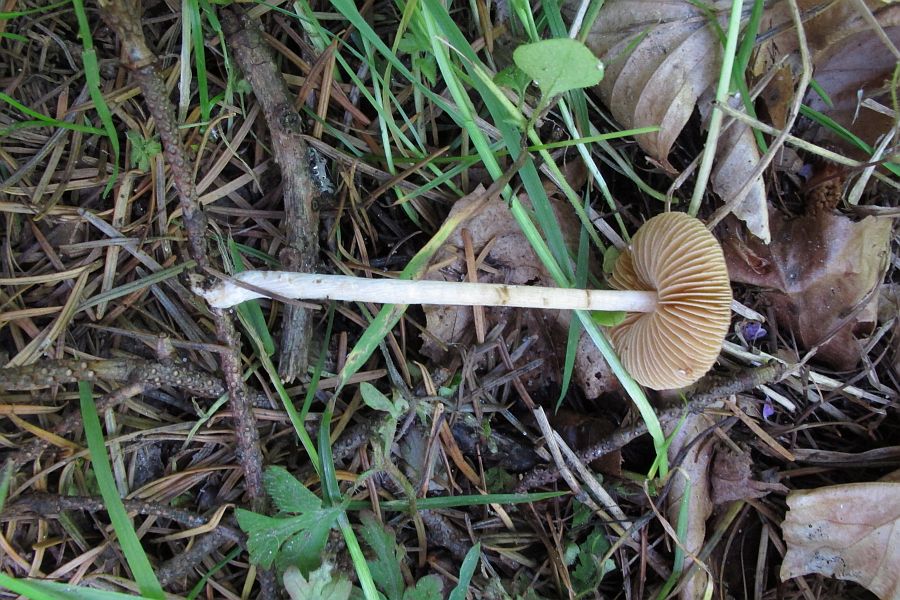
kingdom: Fungi
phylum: Basidiomycota
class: Agaricomycetes
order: Agaricales
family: Bolbitiaceae
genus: Conocybe
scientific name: Conocybe aporos
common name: tidlig dansehat
